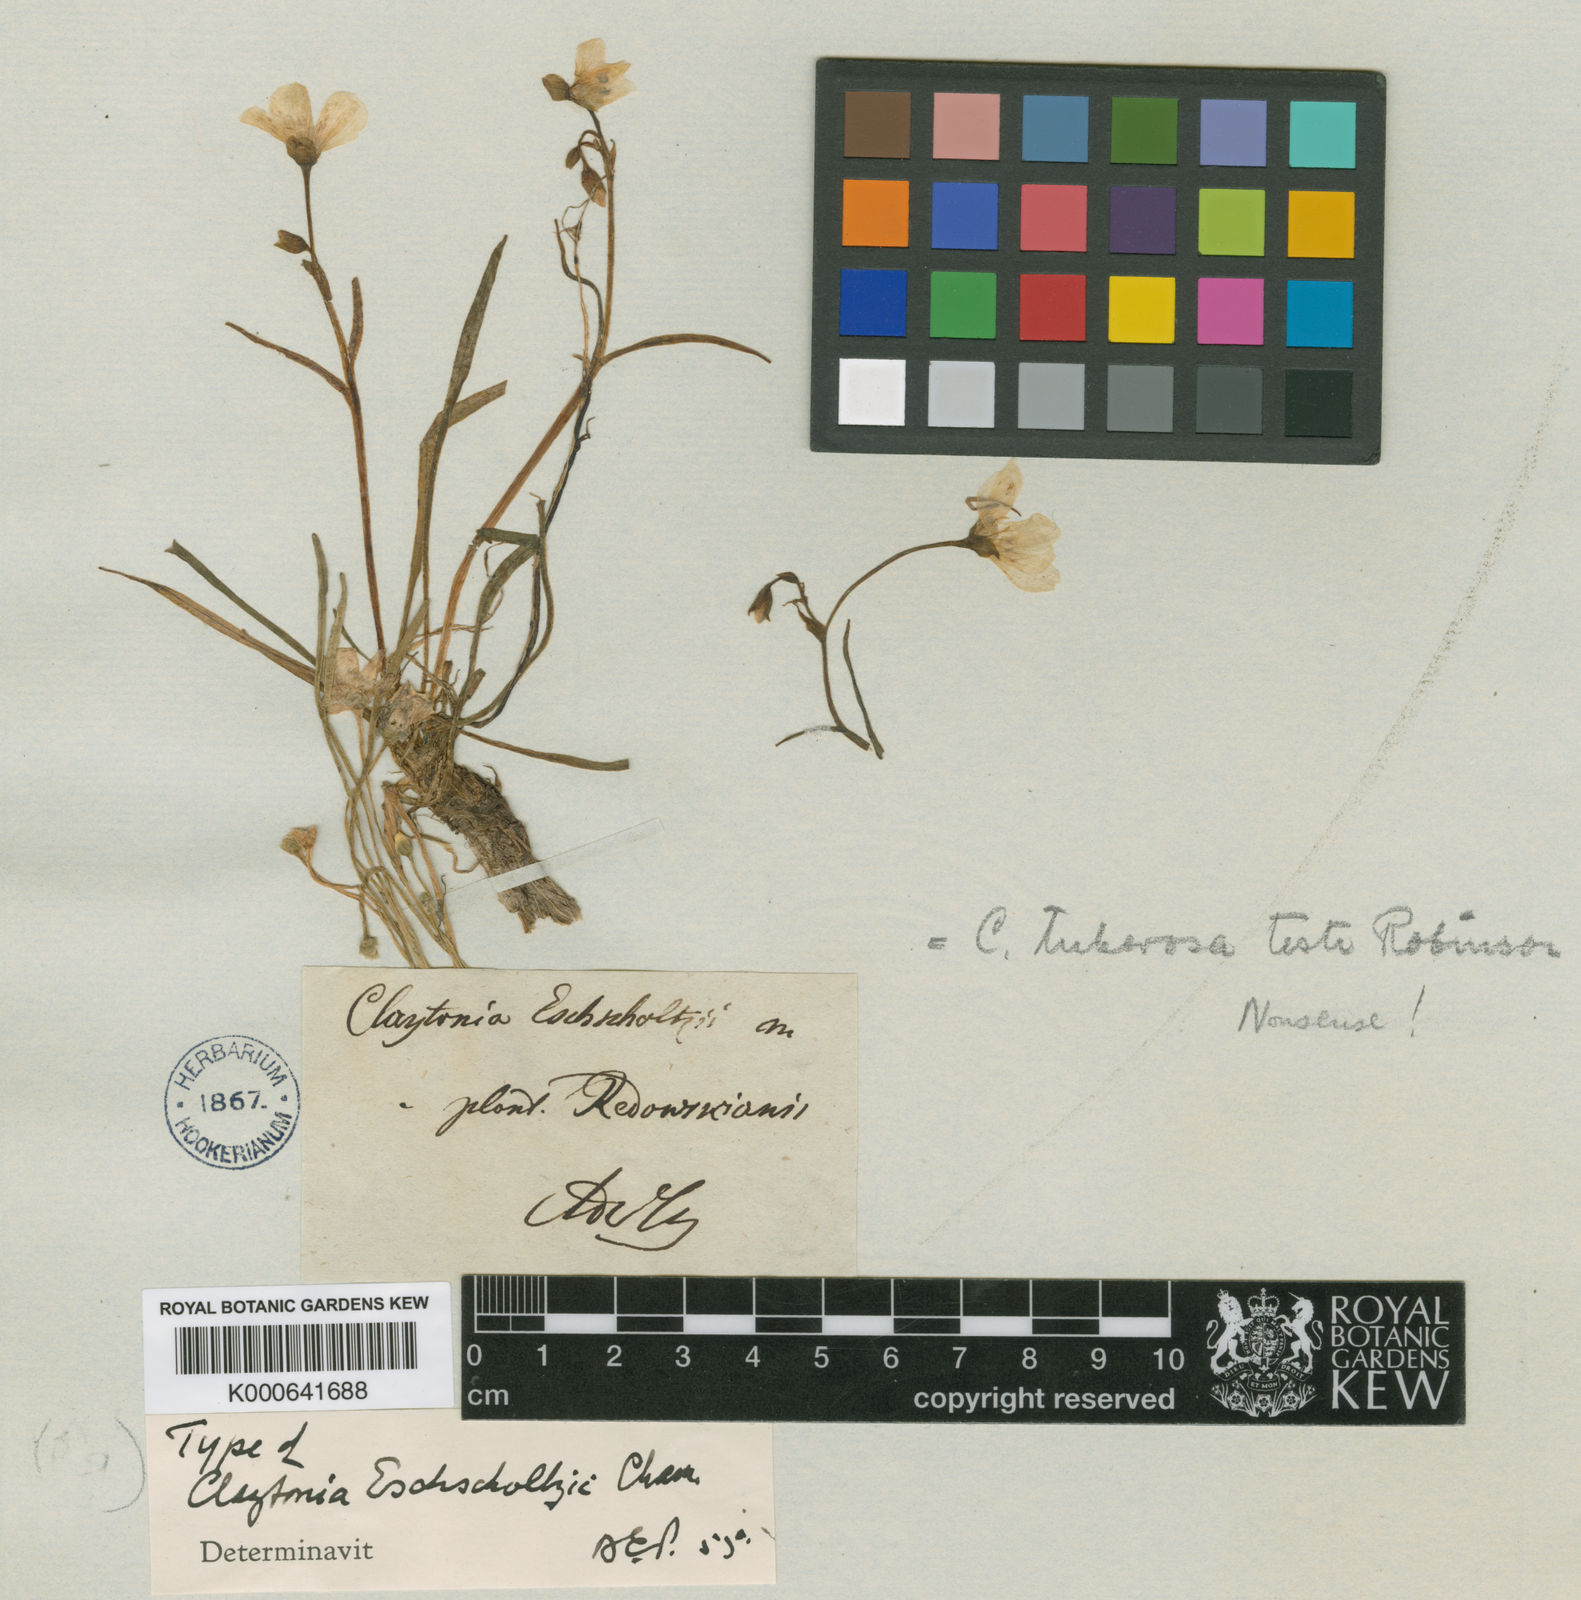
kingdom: Plantae
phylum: Tracheophyta
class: Magnoliopsida
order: Caryophyllales
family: Montiaceae
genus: Claytonia
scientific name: Claytonia acutifolia
